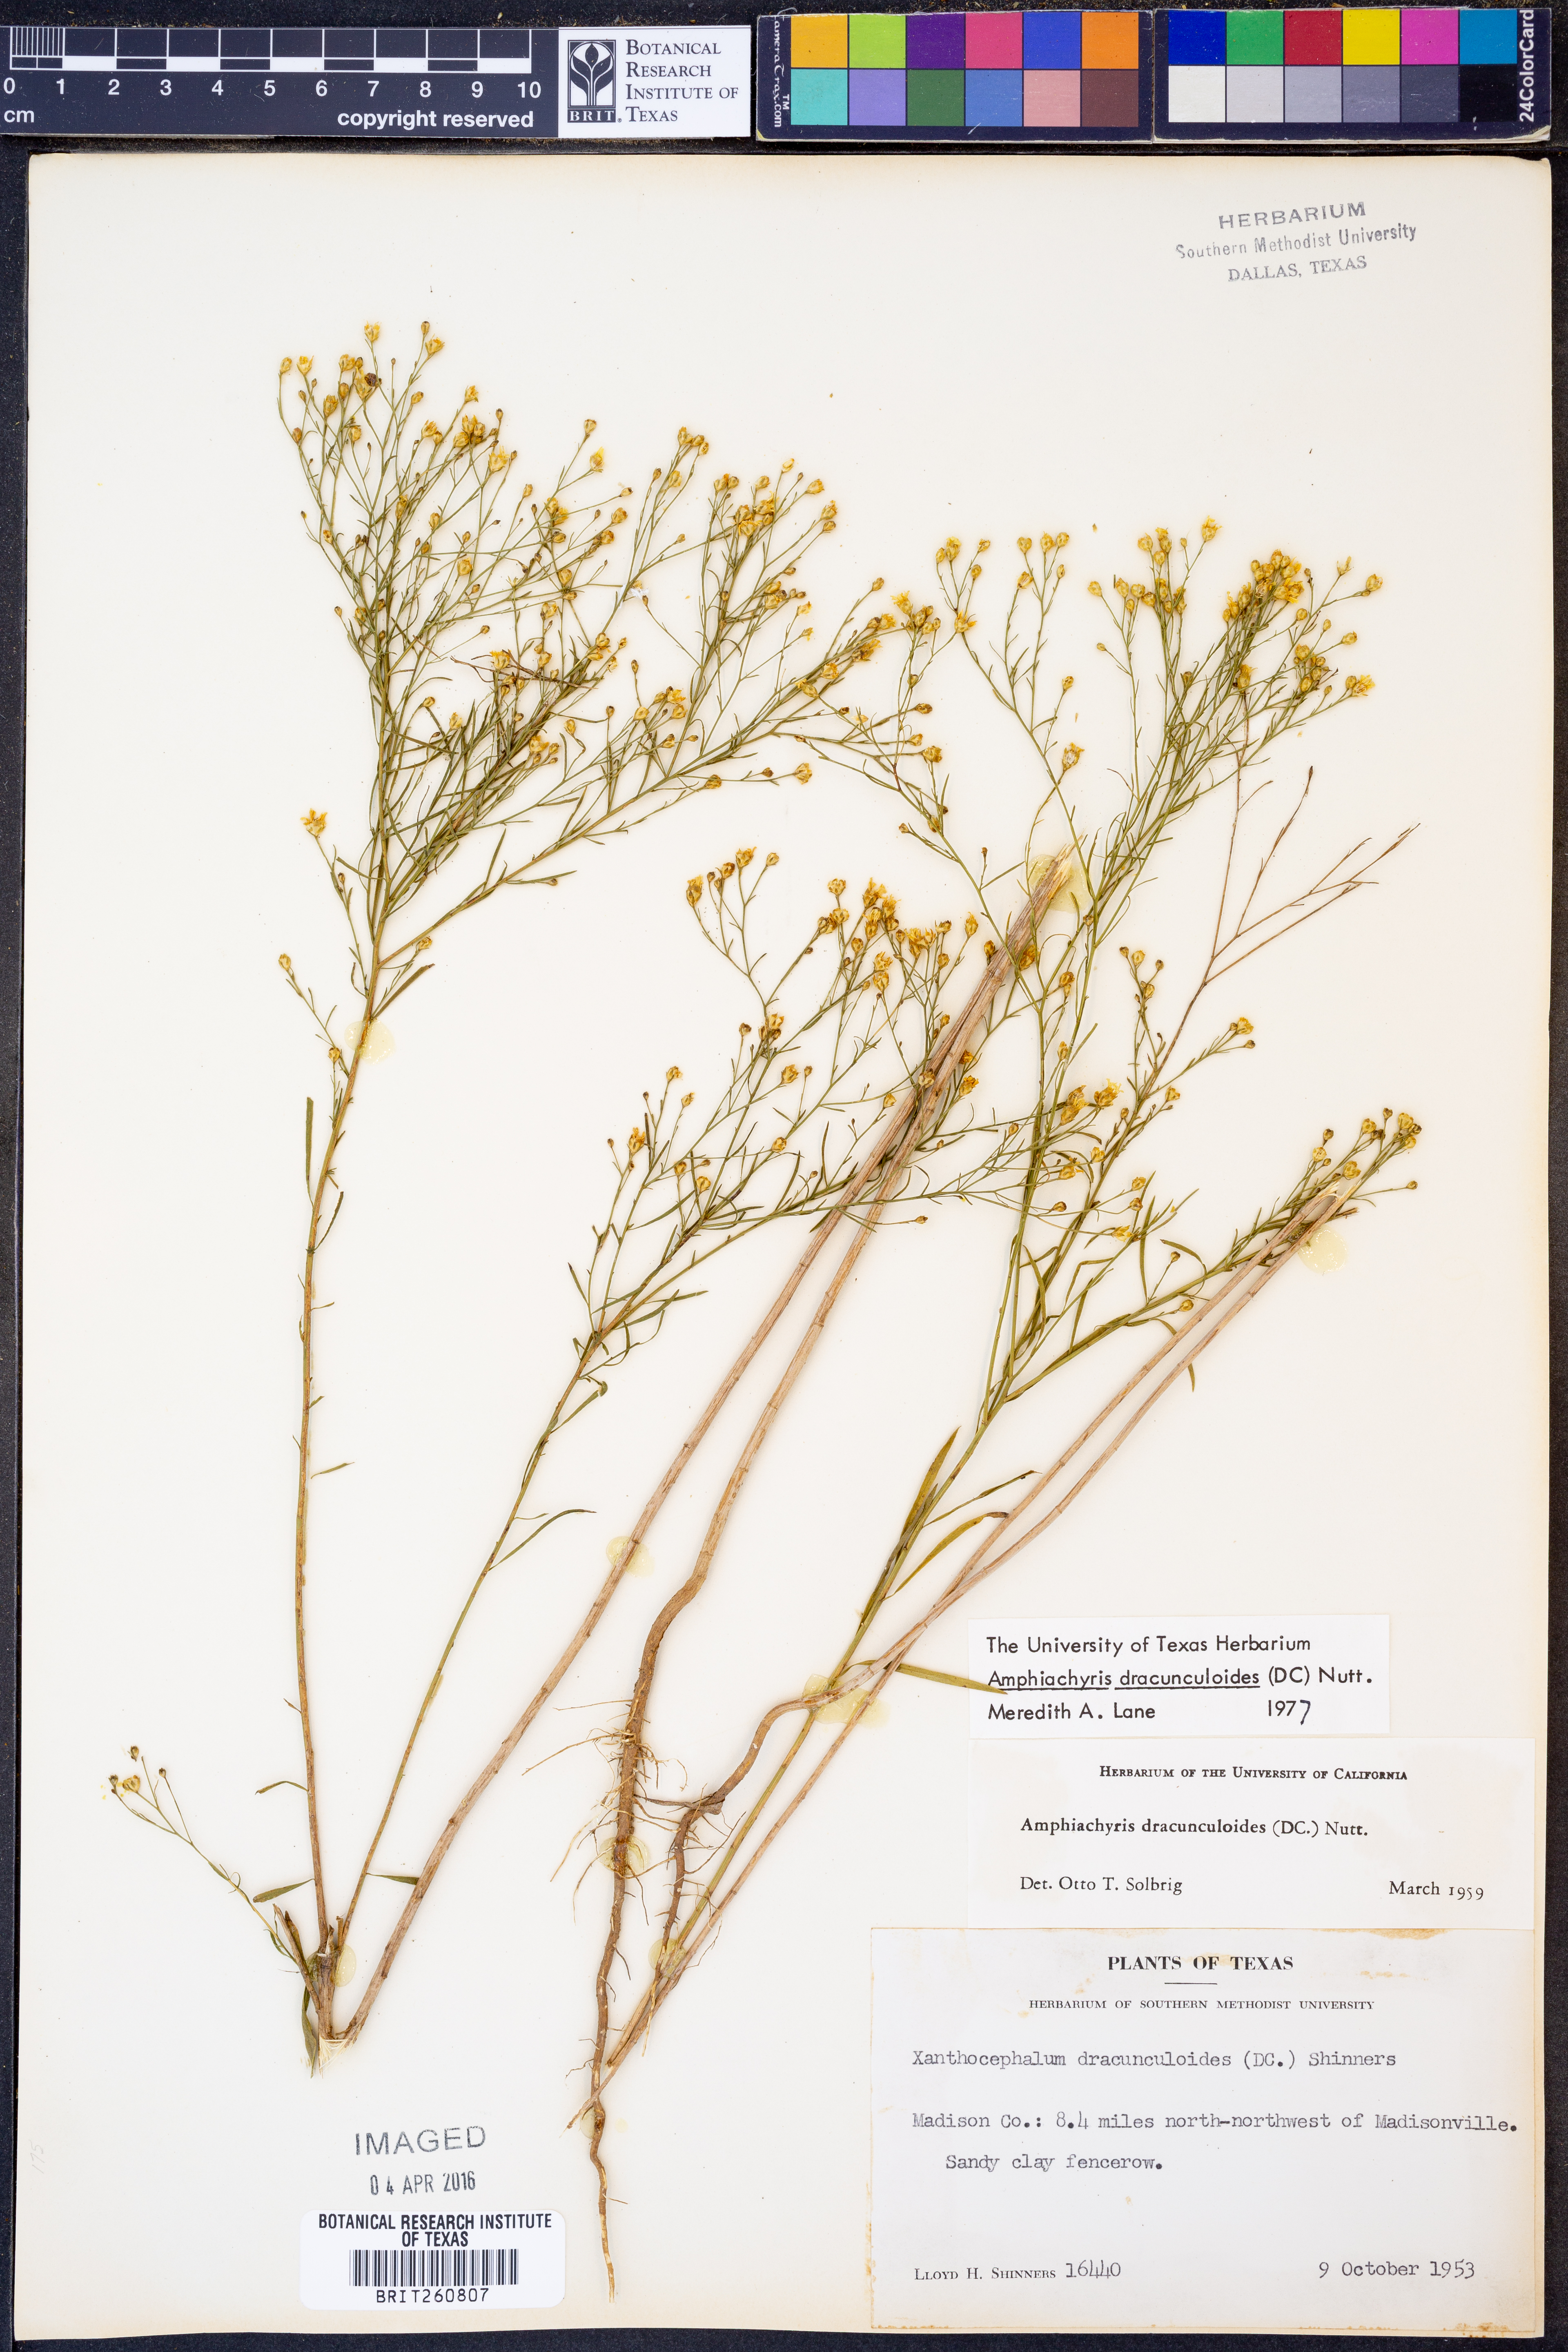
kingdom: Plantae
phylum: Tracheophyta
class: Magnoliopsida
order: Asterales
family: Asteraceae
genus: Amphiachyris
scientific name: Amphiachyris dracunculoides
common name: Broomweed
